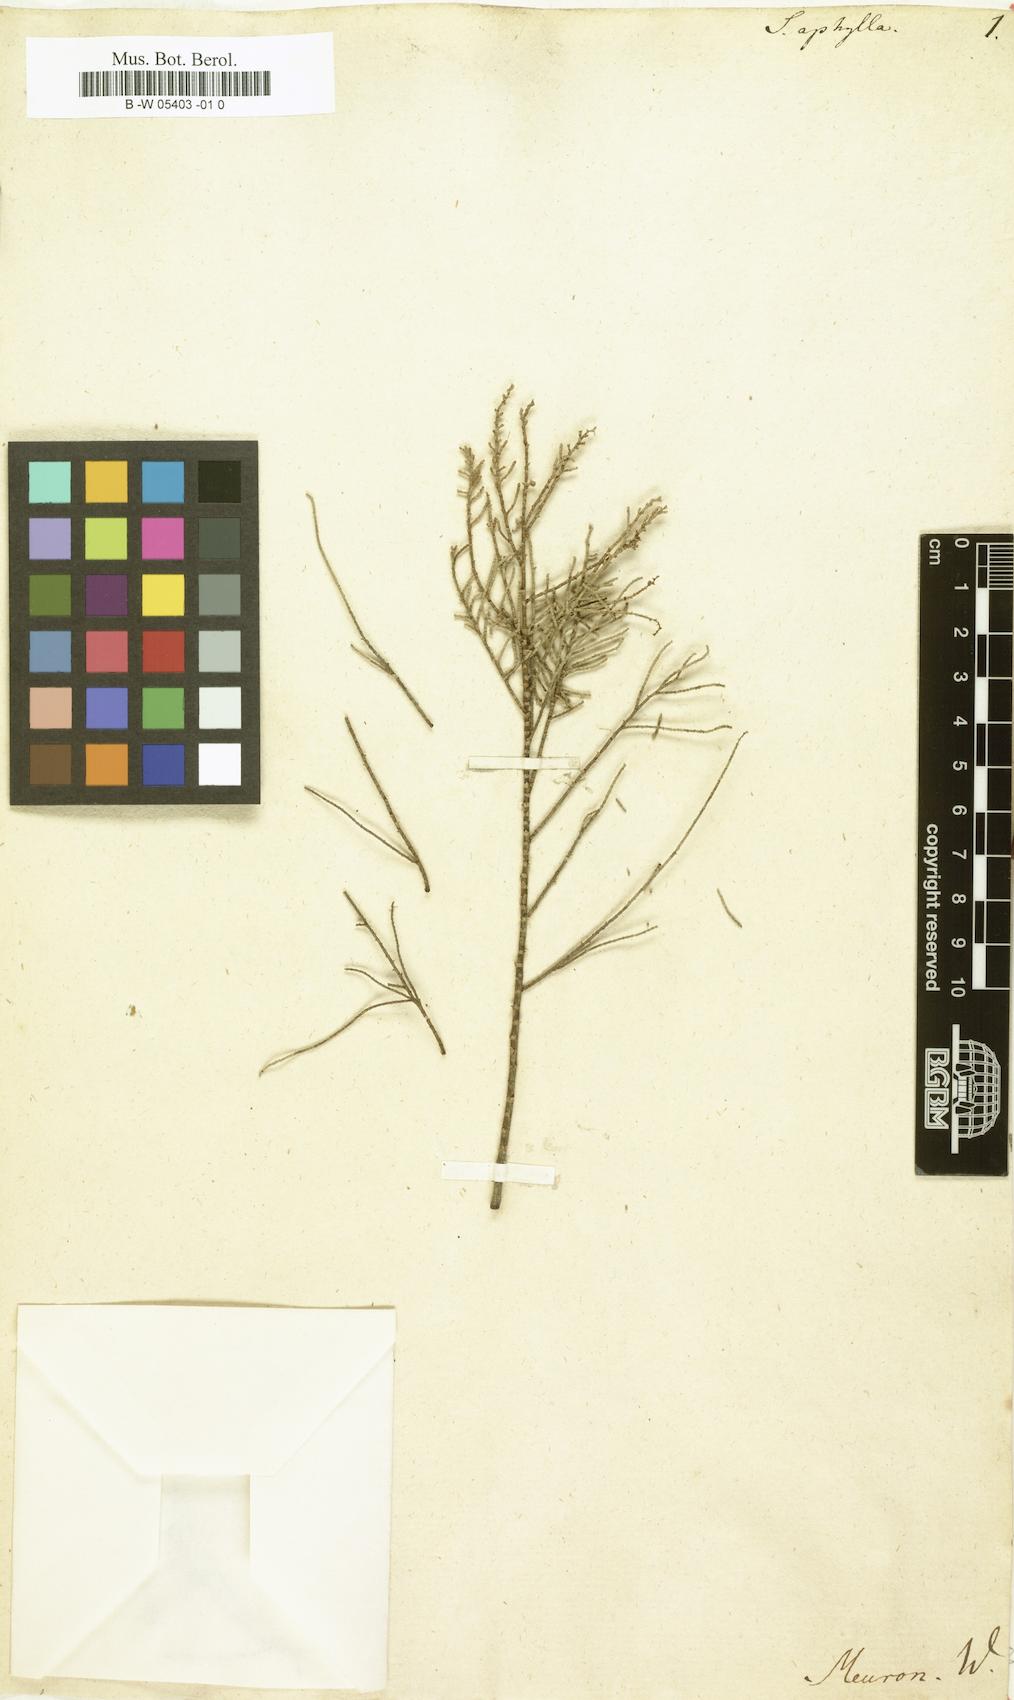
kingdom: Plantae
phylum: Tracheophyta
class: Magnoliopsida
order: Caryophyllales
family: Amaranthaceae
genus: Caroxylon
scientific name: Caroxylon aphyllum
